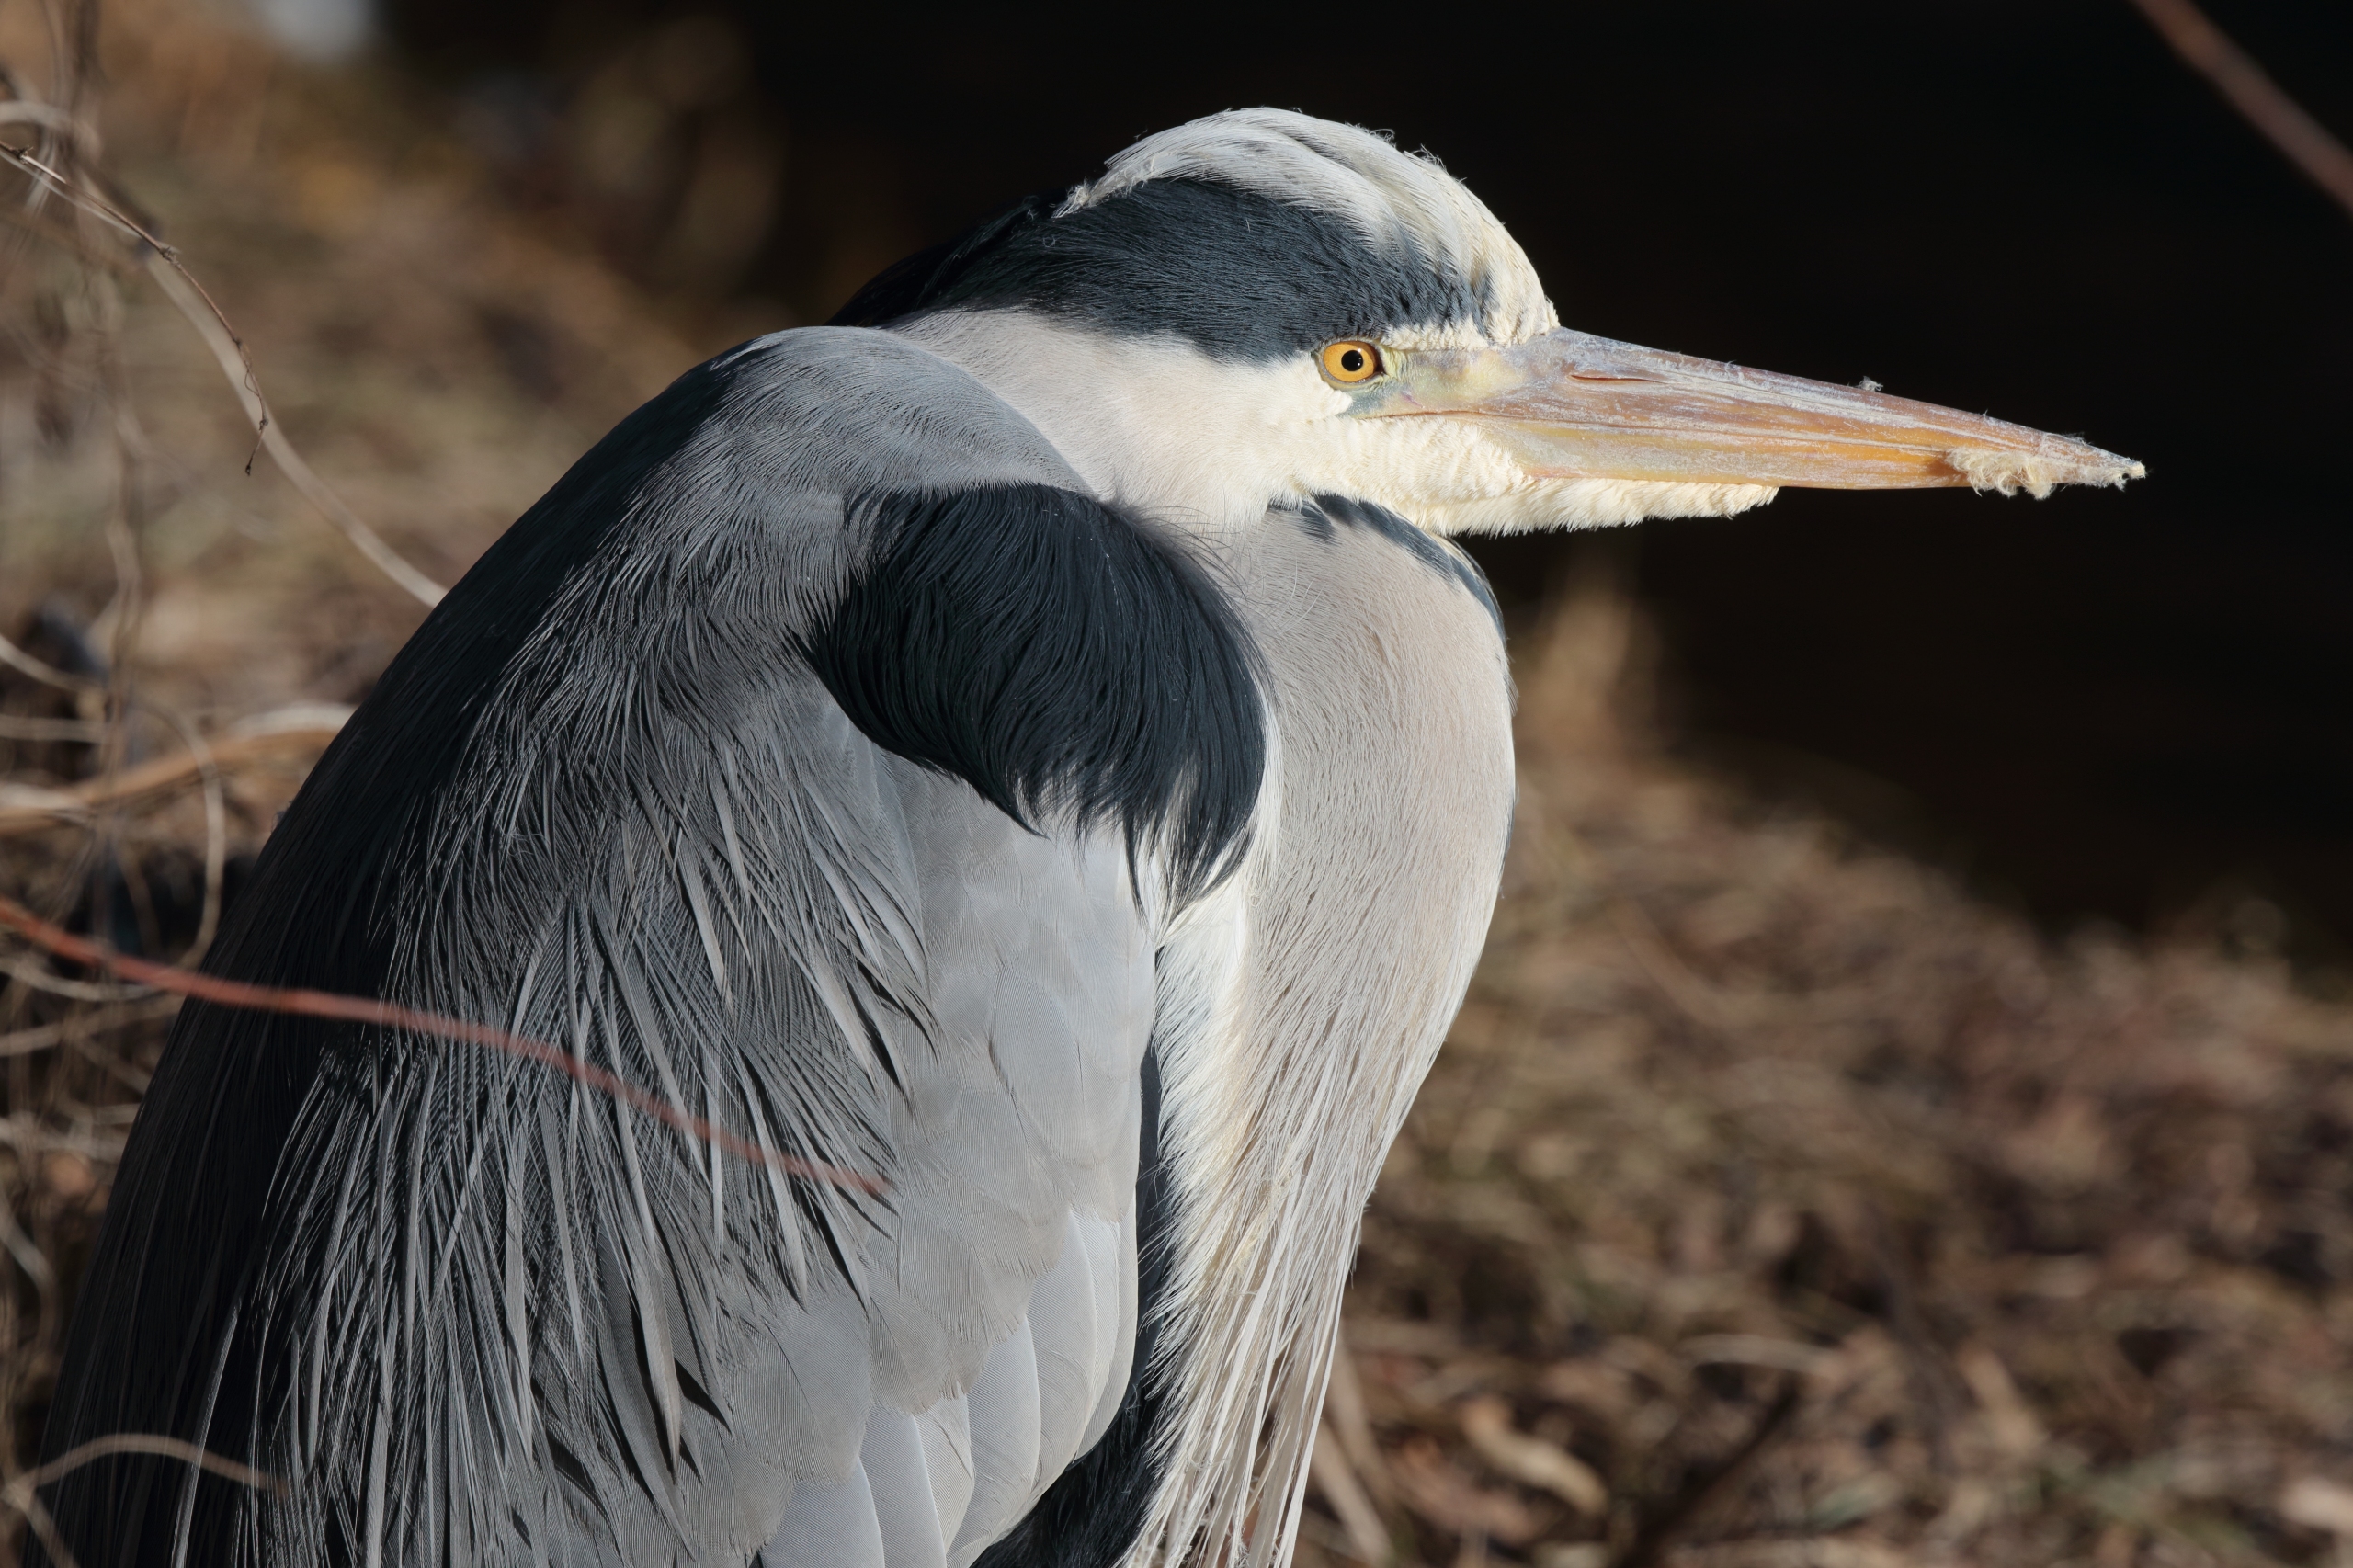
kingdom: Animalia
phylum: Chordata
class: Aves
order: Pelecaniformes
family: Ardeidae
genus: Ardea
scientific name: Ardea cinerea
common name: Fiskehejre
